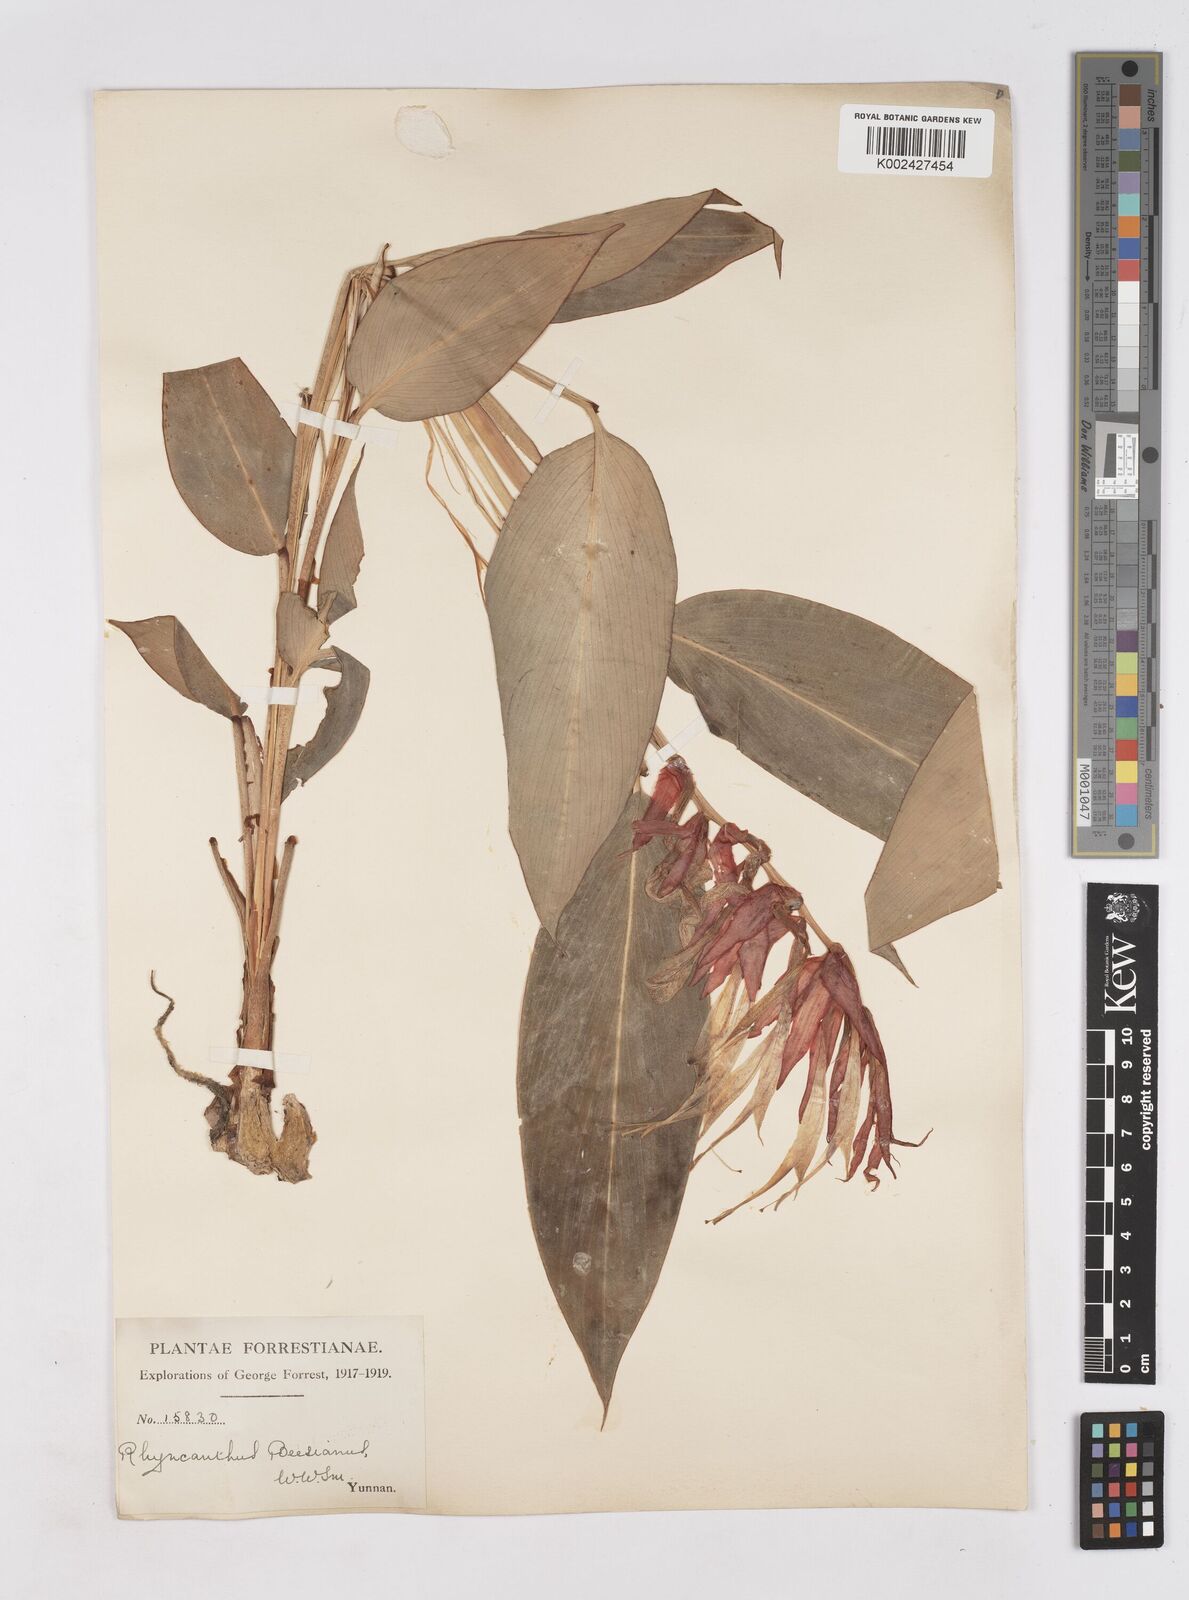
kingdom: Plantae
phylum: Tracheophyta
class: Liliopsida
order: Zingiberales
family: Zingiberaceae
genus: Rhynchanthus
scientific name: Rhynchanthus beesianus
